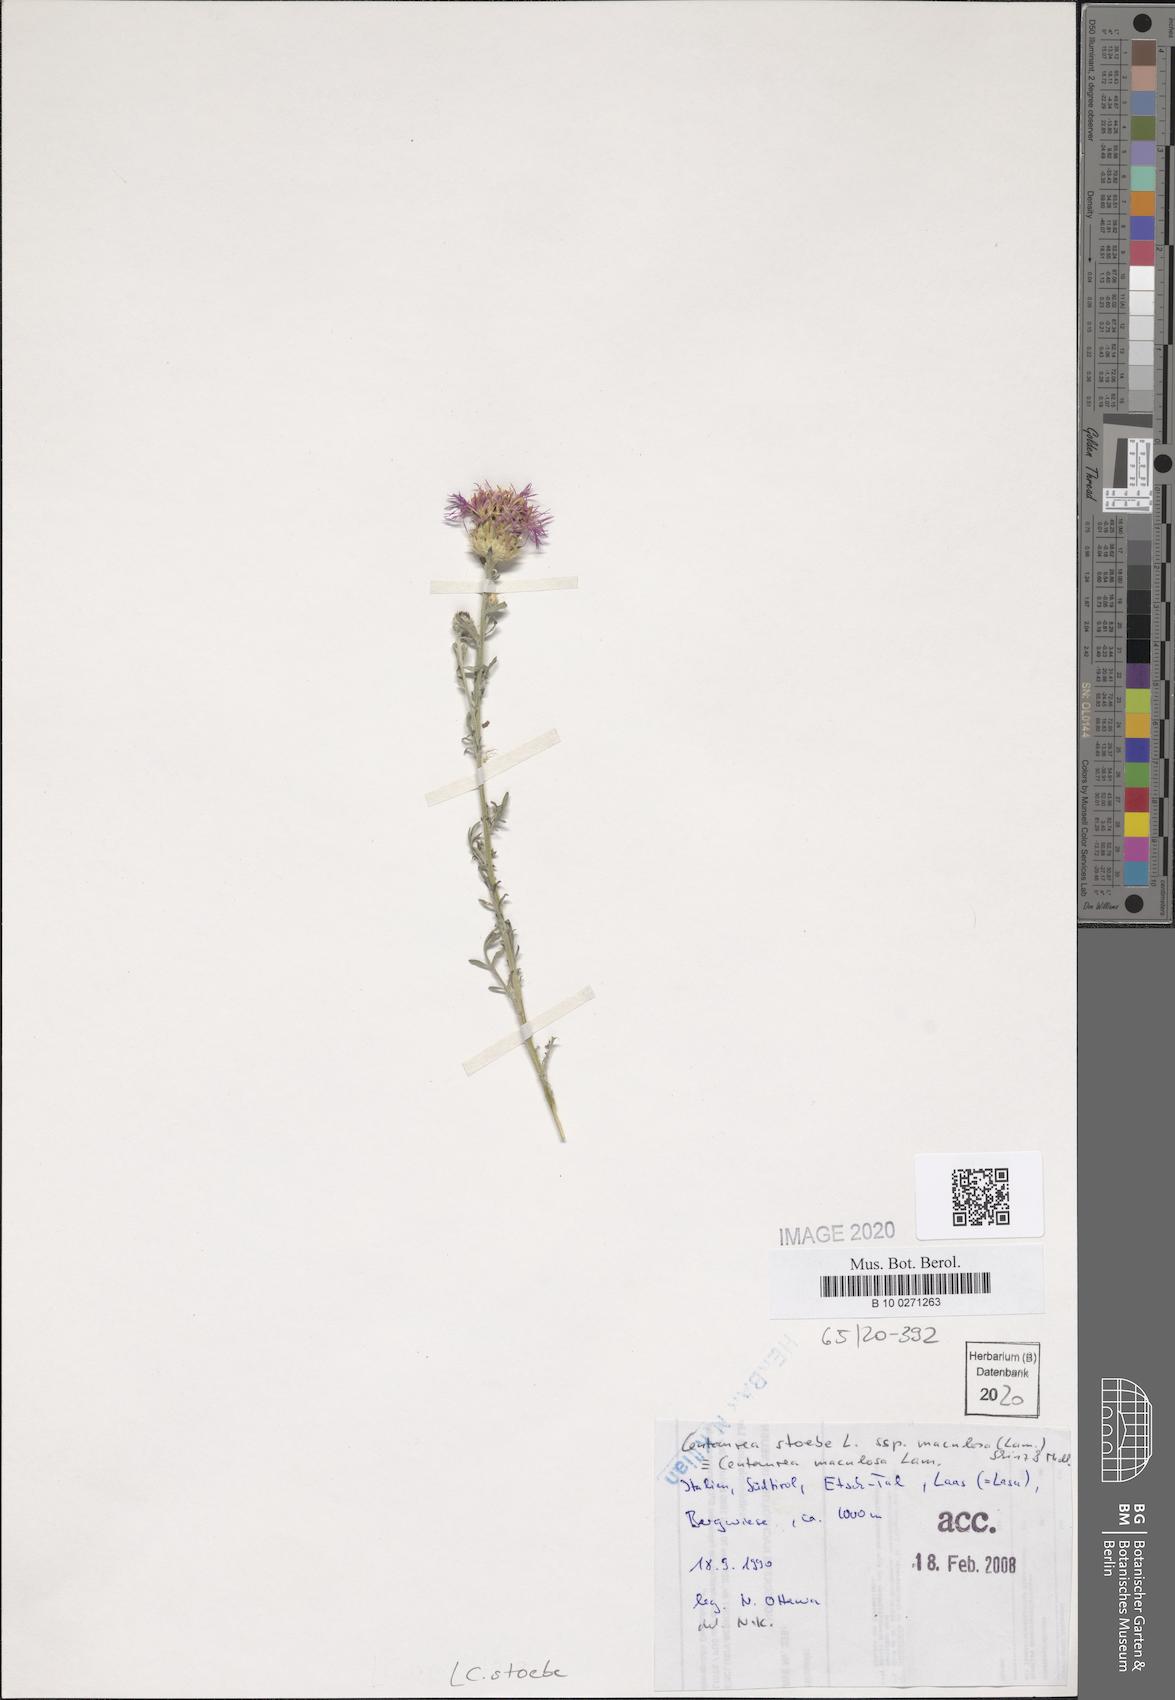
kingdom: Plantae
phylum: Tracheophyta
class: Magnoliopsida
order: Asterales
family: Asteraceae
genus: Centaurea
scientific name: Centaurea stoebe
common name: Spotted knapweed
